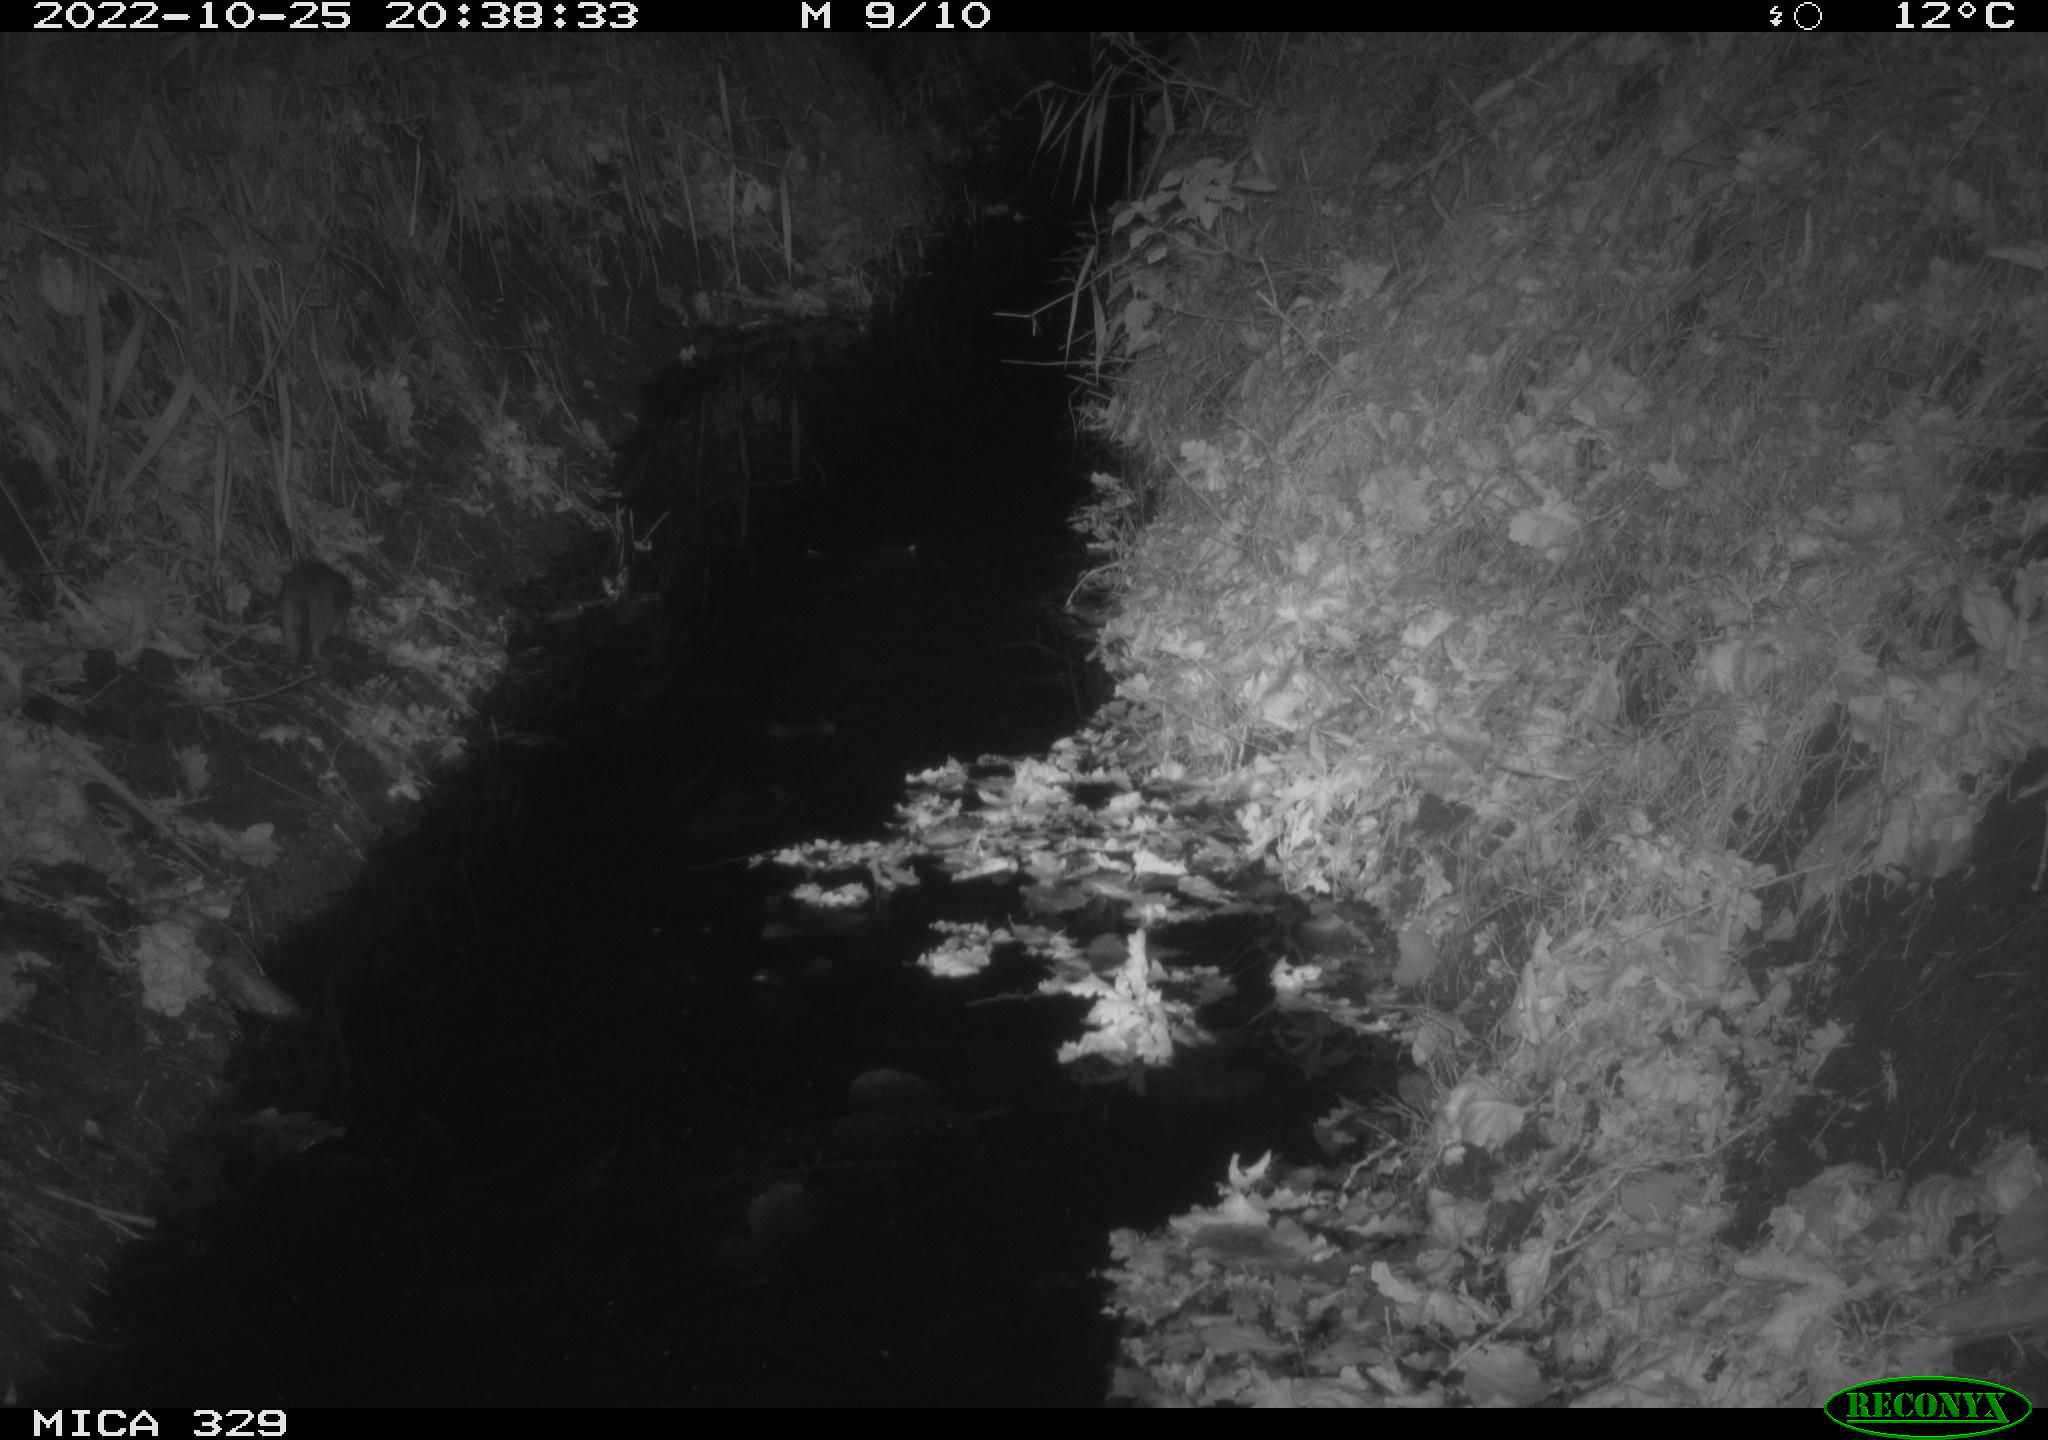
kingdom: Animalia
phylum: Chordata
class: Mammalia
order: Rodentia
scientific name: Rodentia
